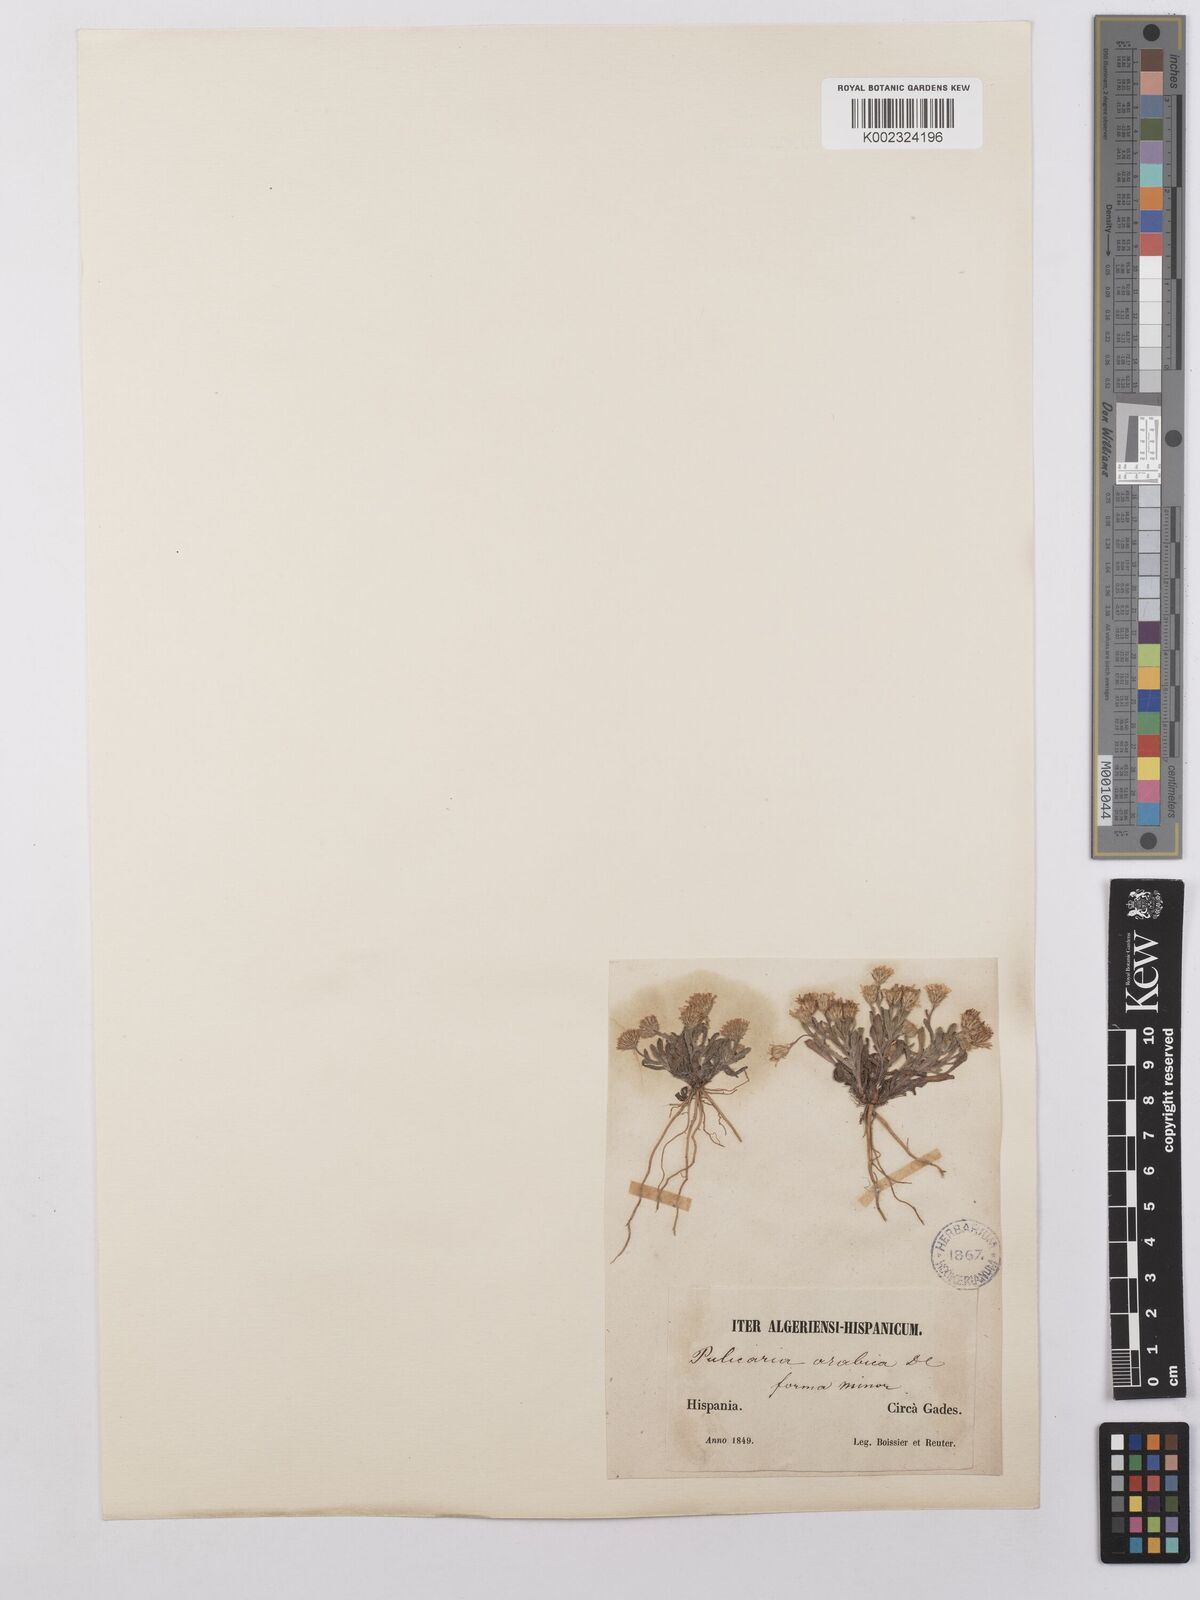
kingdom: Plantae
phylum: Tracheophyta
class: Magnoliopsida
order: Asterales
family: Asteraceae
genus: Pulicaria
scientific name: Pulicaria arabica
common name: Ladies' false fleabane
